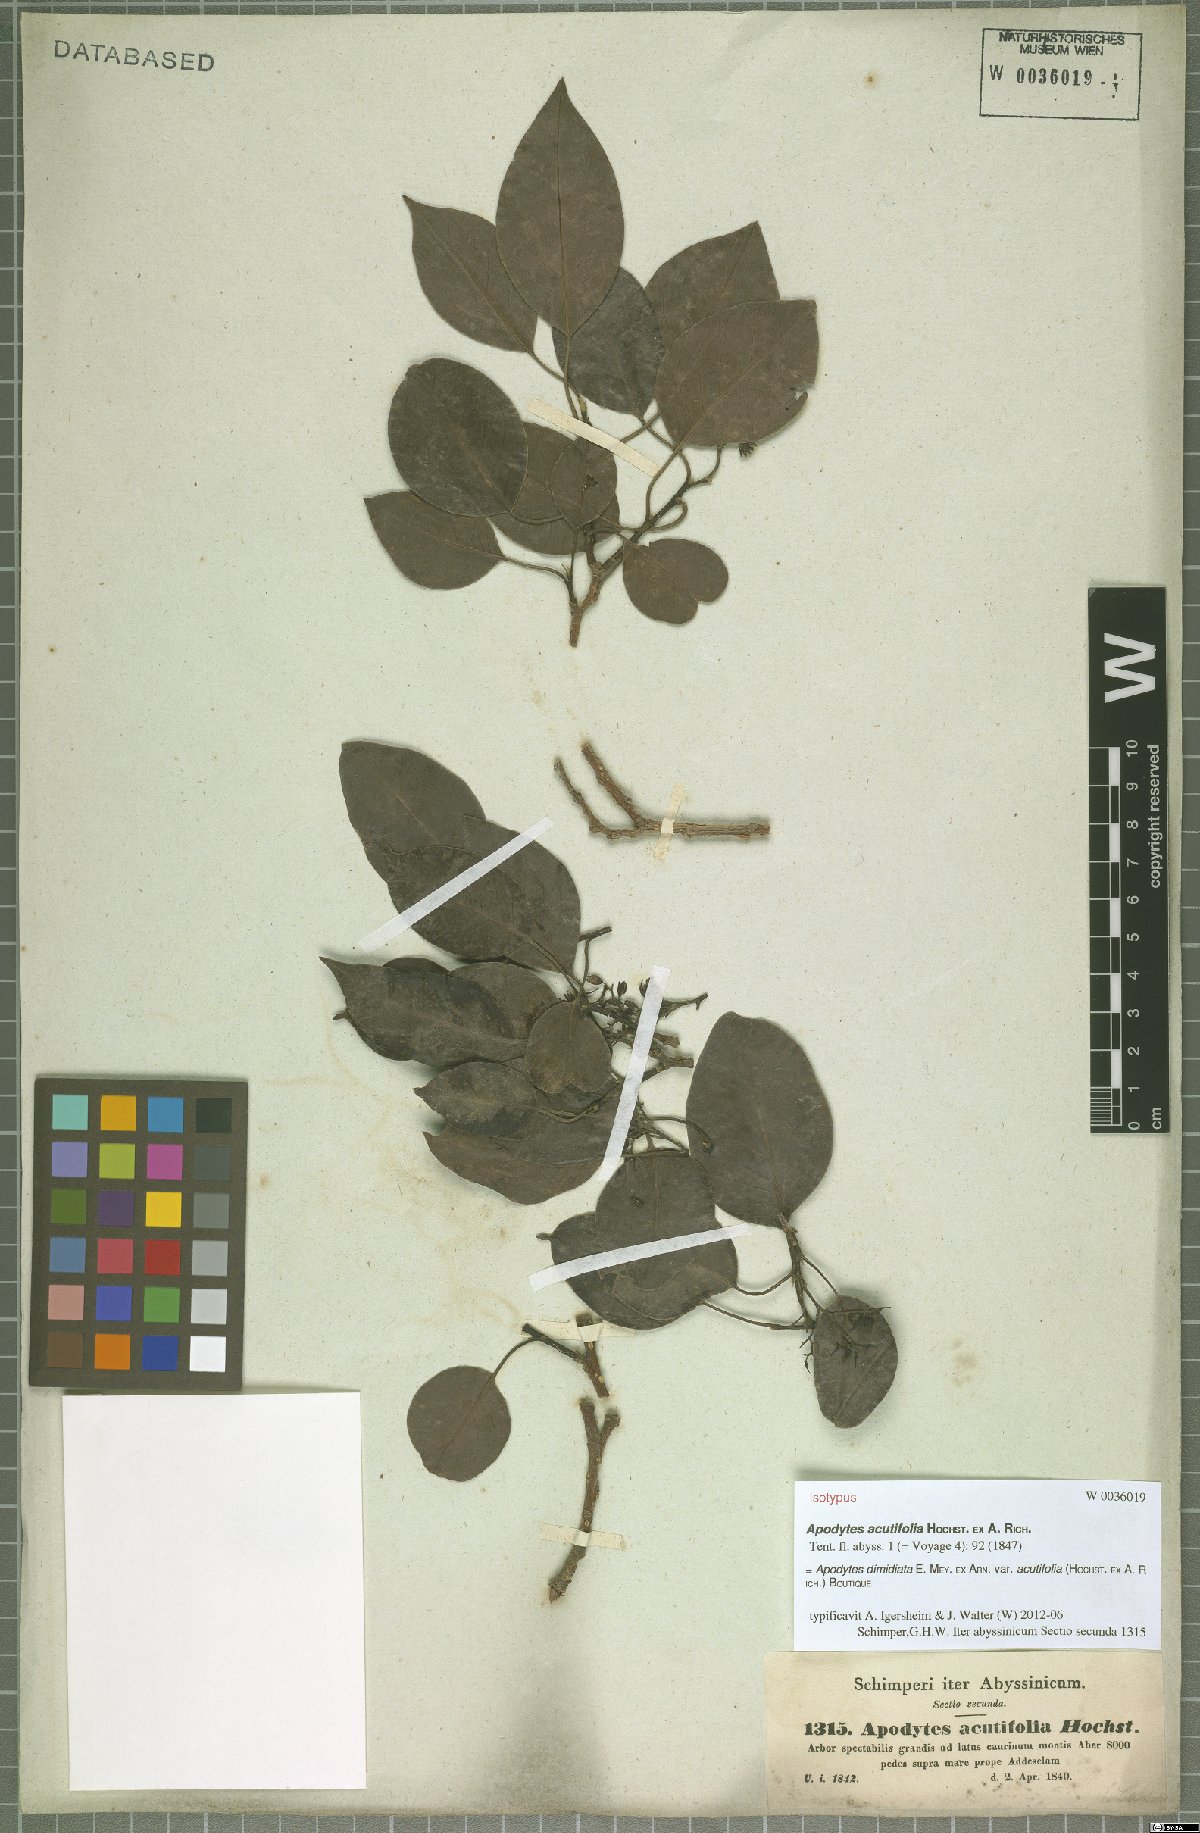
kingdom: Plantae
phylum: Tracheophyta
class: Magnoliopsida
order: Metteniusales
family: Metteniusaceae
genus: Apodytes
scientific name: Apodytes dimidiata
